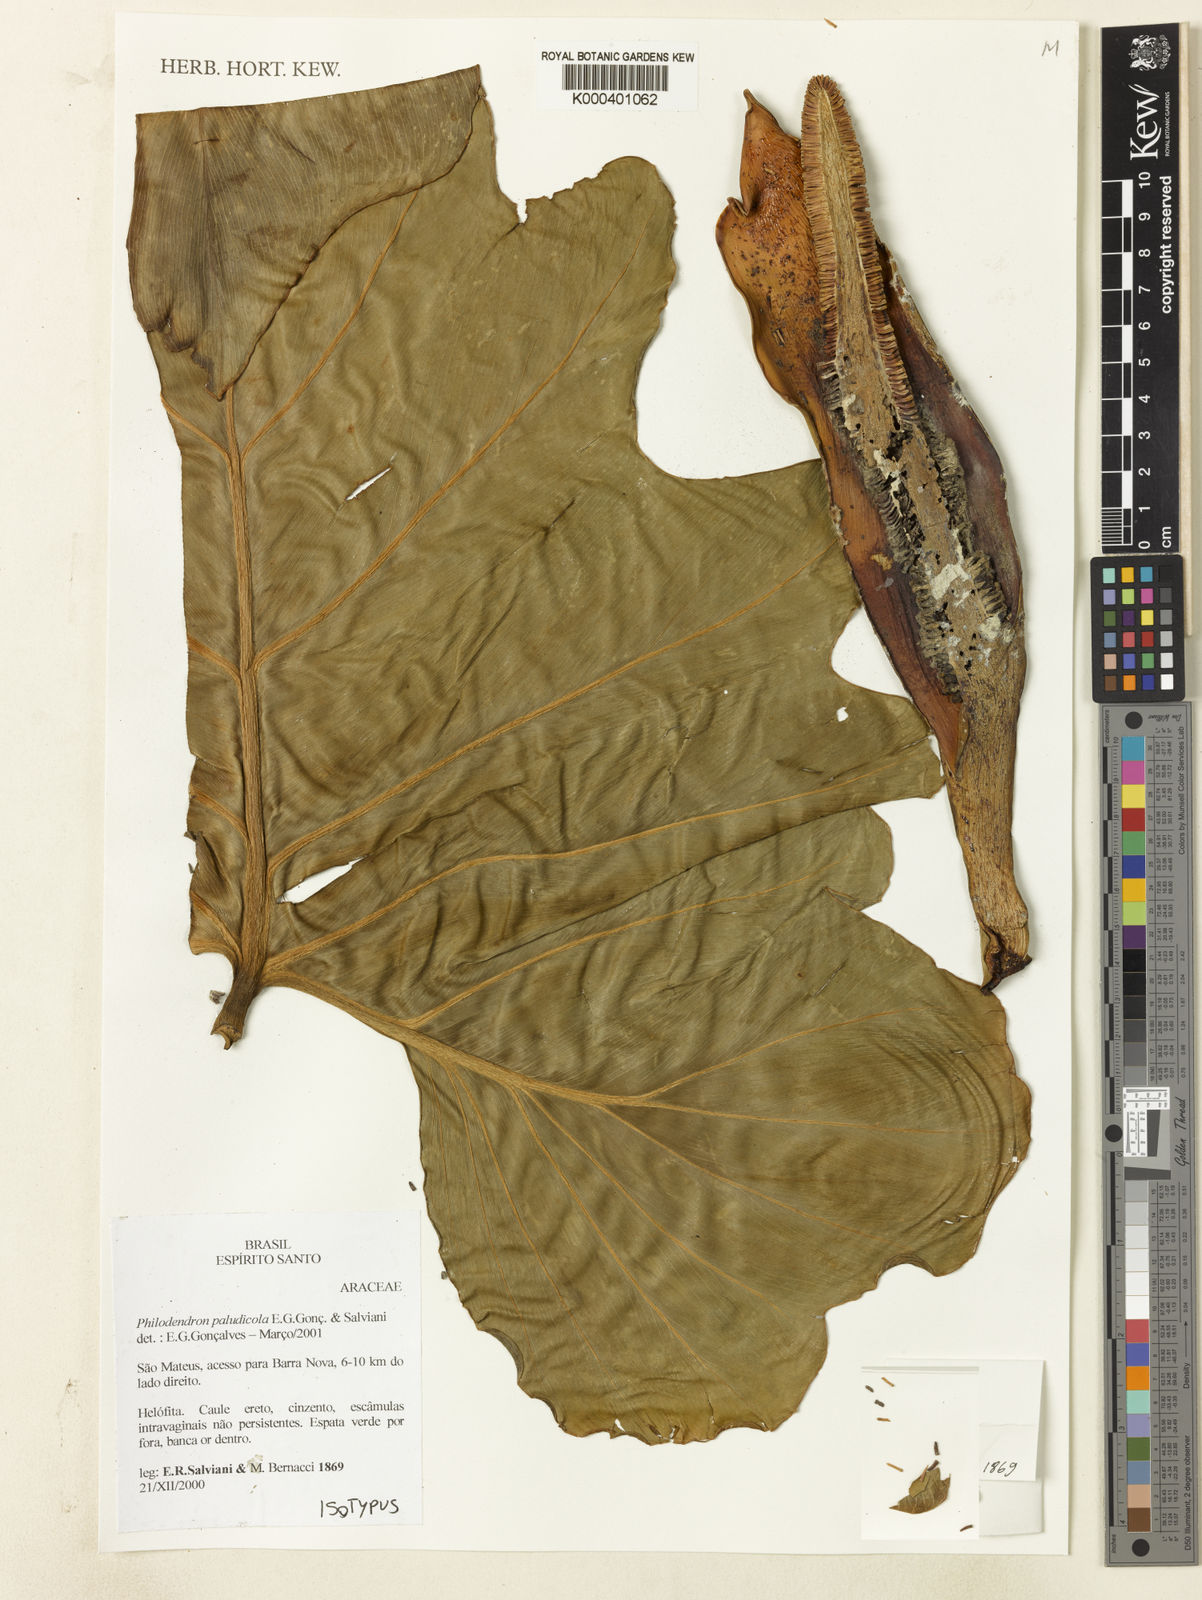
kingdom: Plantae
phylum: Tracheophyta
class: Liliopsida
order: Alismatales
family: Araceae
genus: Philodendron
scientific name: Philodendron
